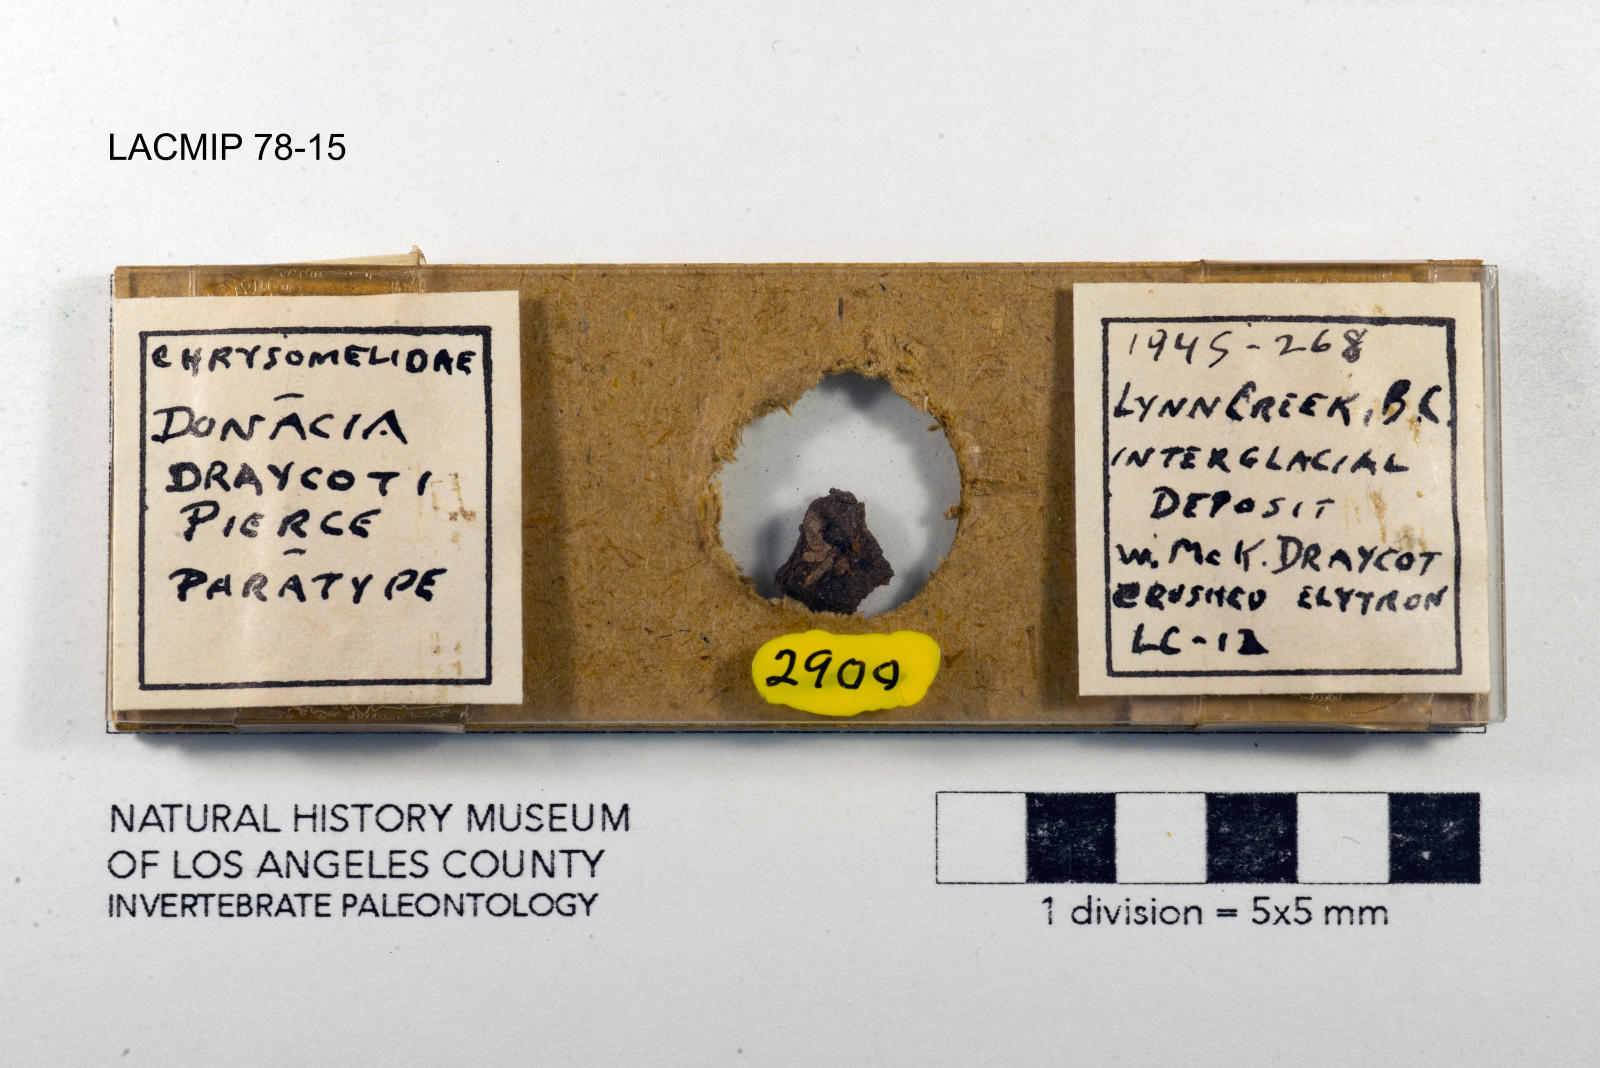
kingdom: Animalia
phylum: Arthropoda
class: Insecta
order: Coleoptera
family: Chrysomelidae
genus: Donacia
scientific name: Donacia draycoti
